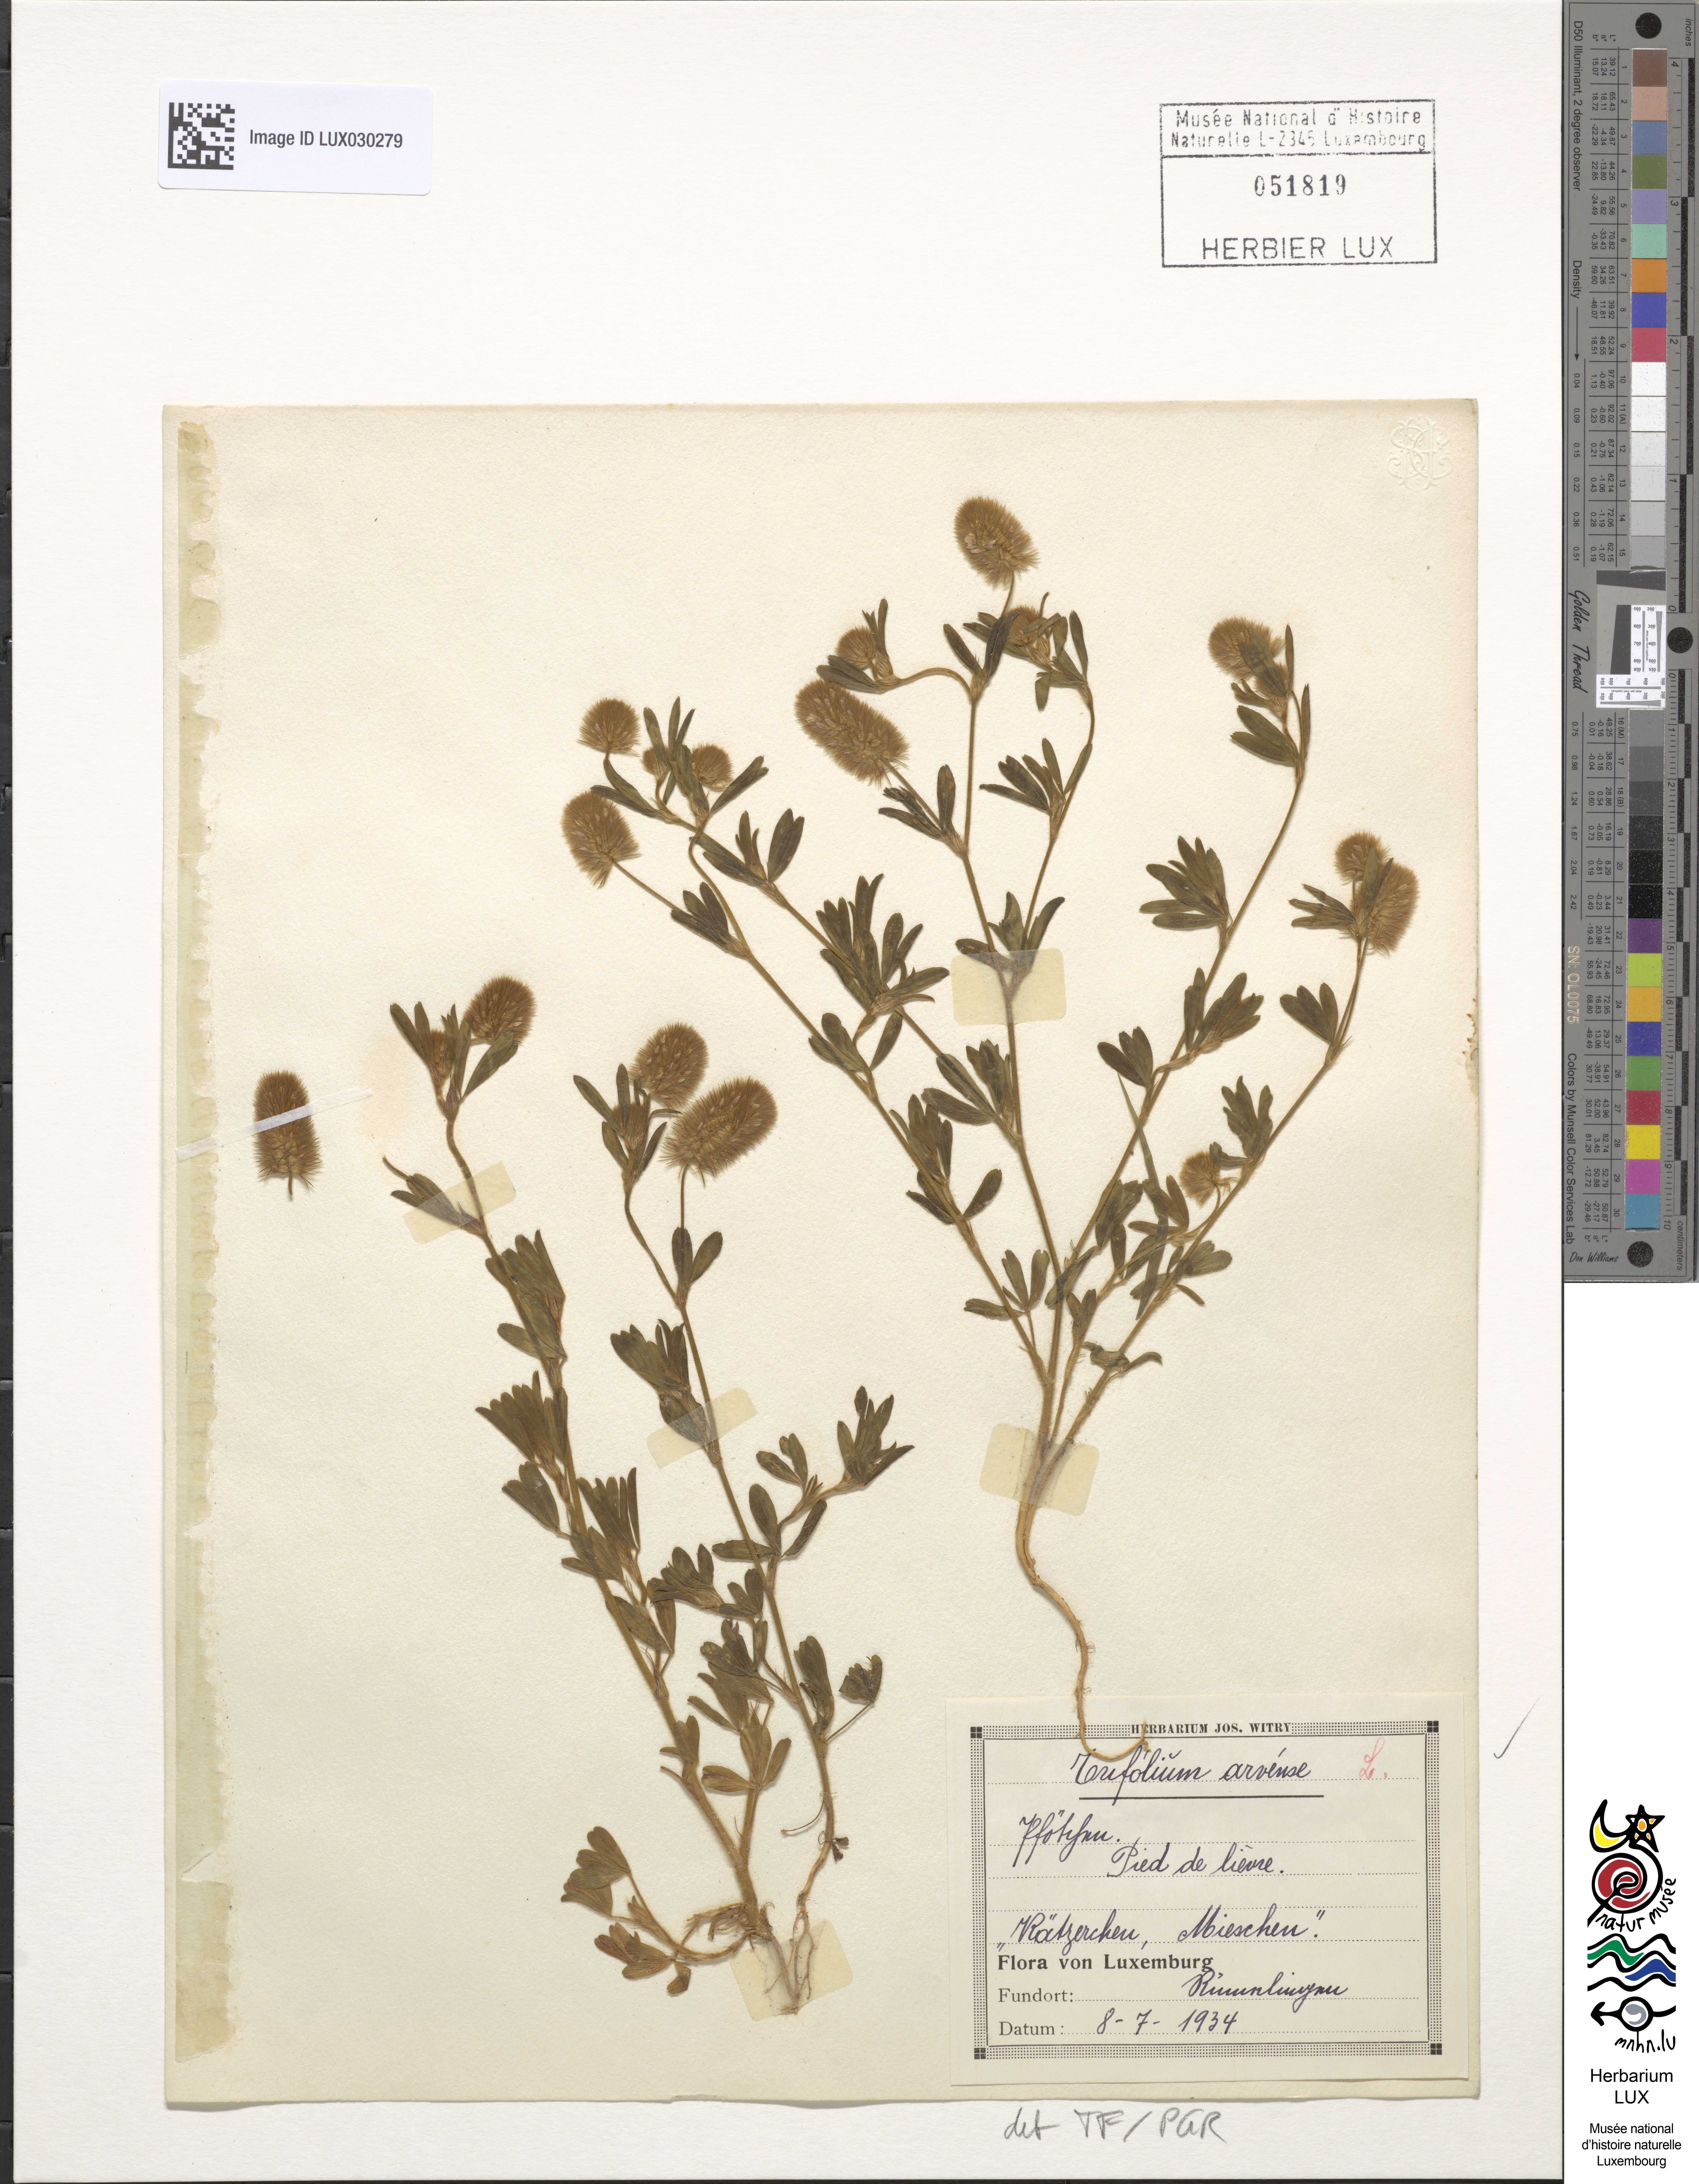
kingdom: Plantae
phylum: Tracheophyta
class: Magnoliopsida
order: Fabales
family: Fabaceae
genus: Trifolium
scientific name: Trifolium arvense
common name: Hare's-foot clover
